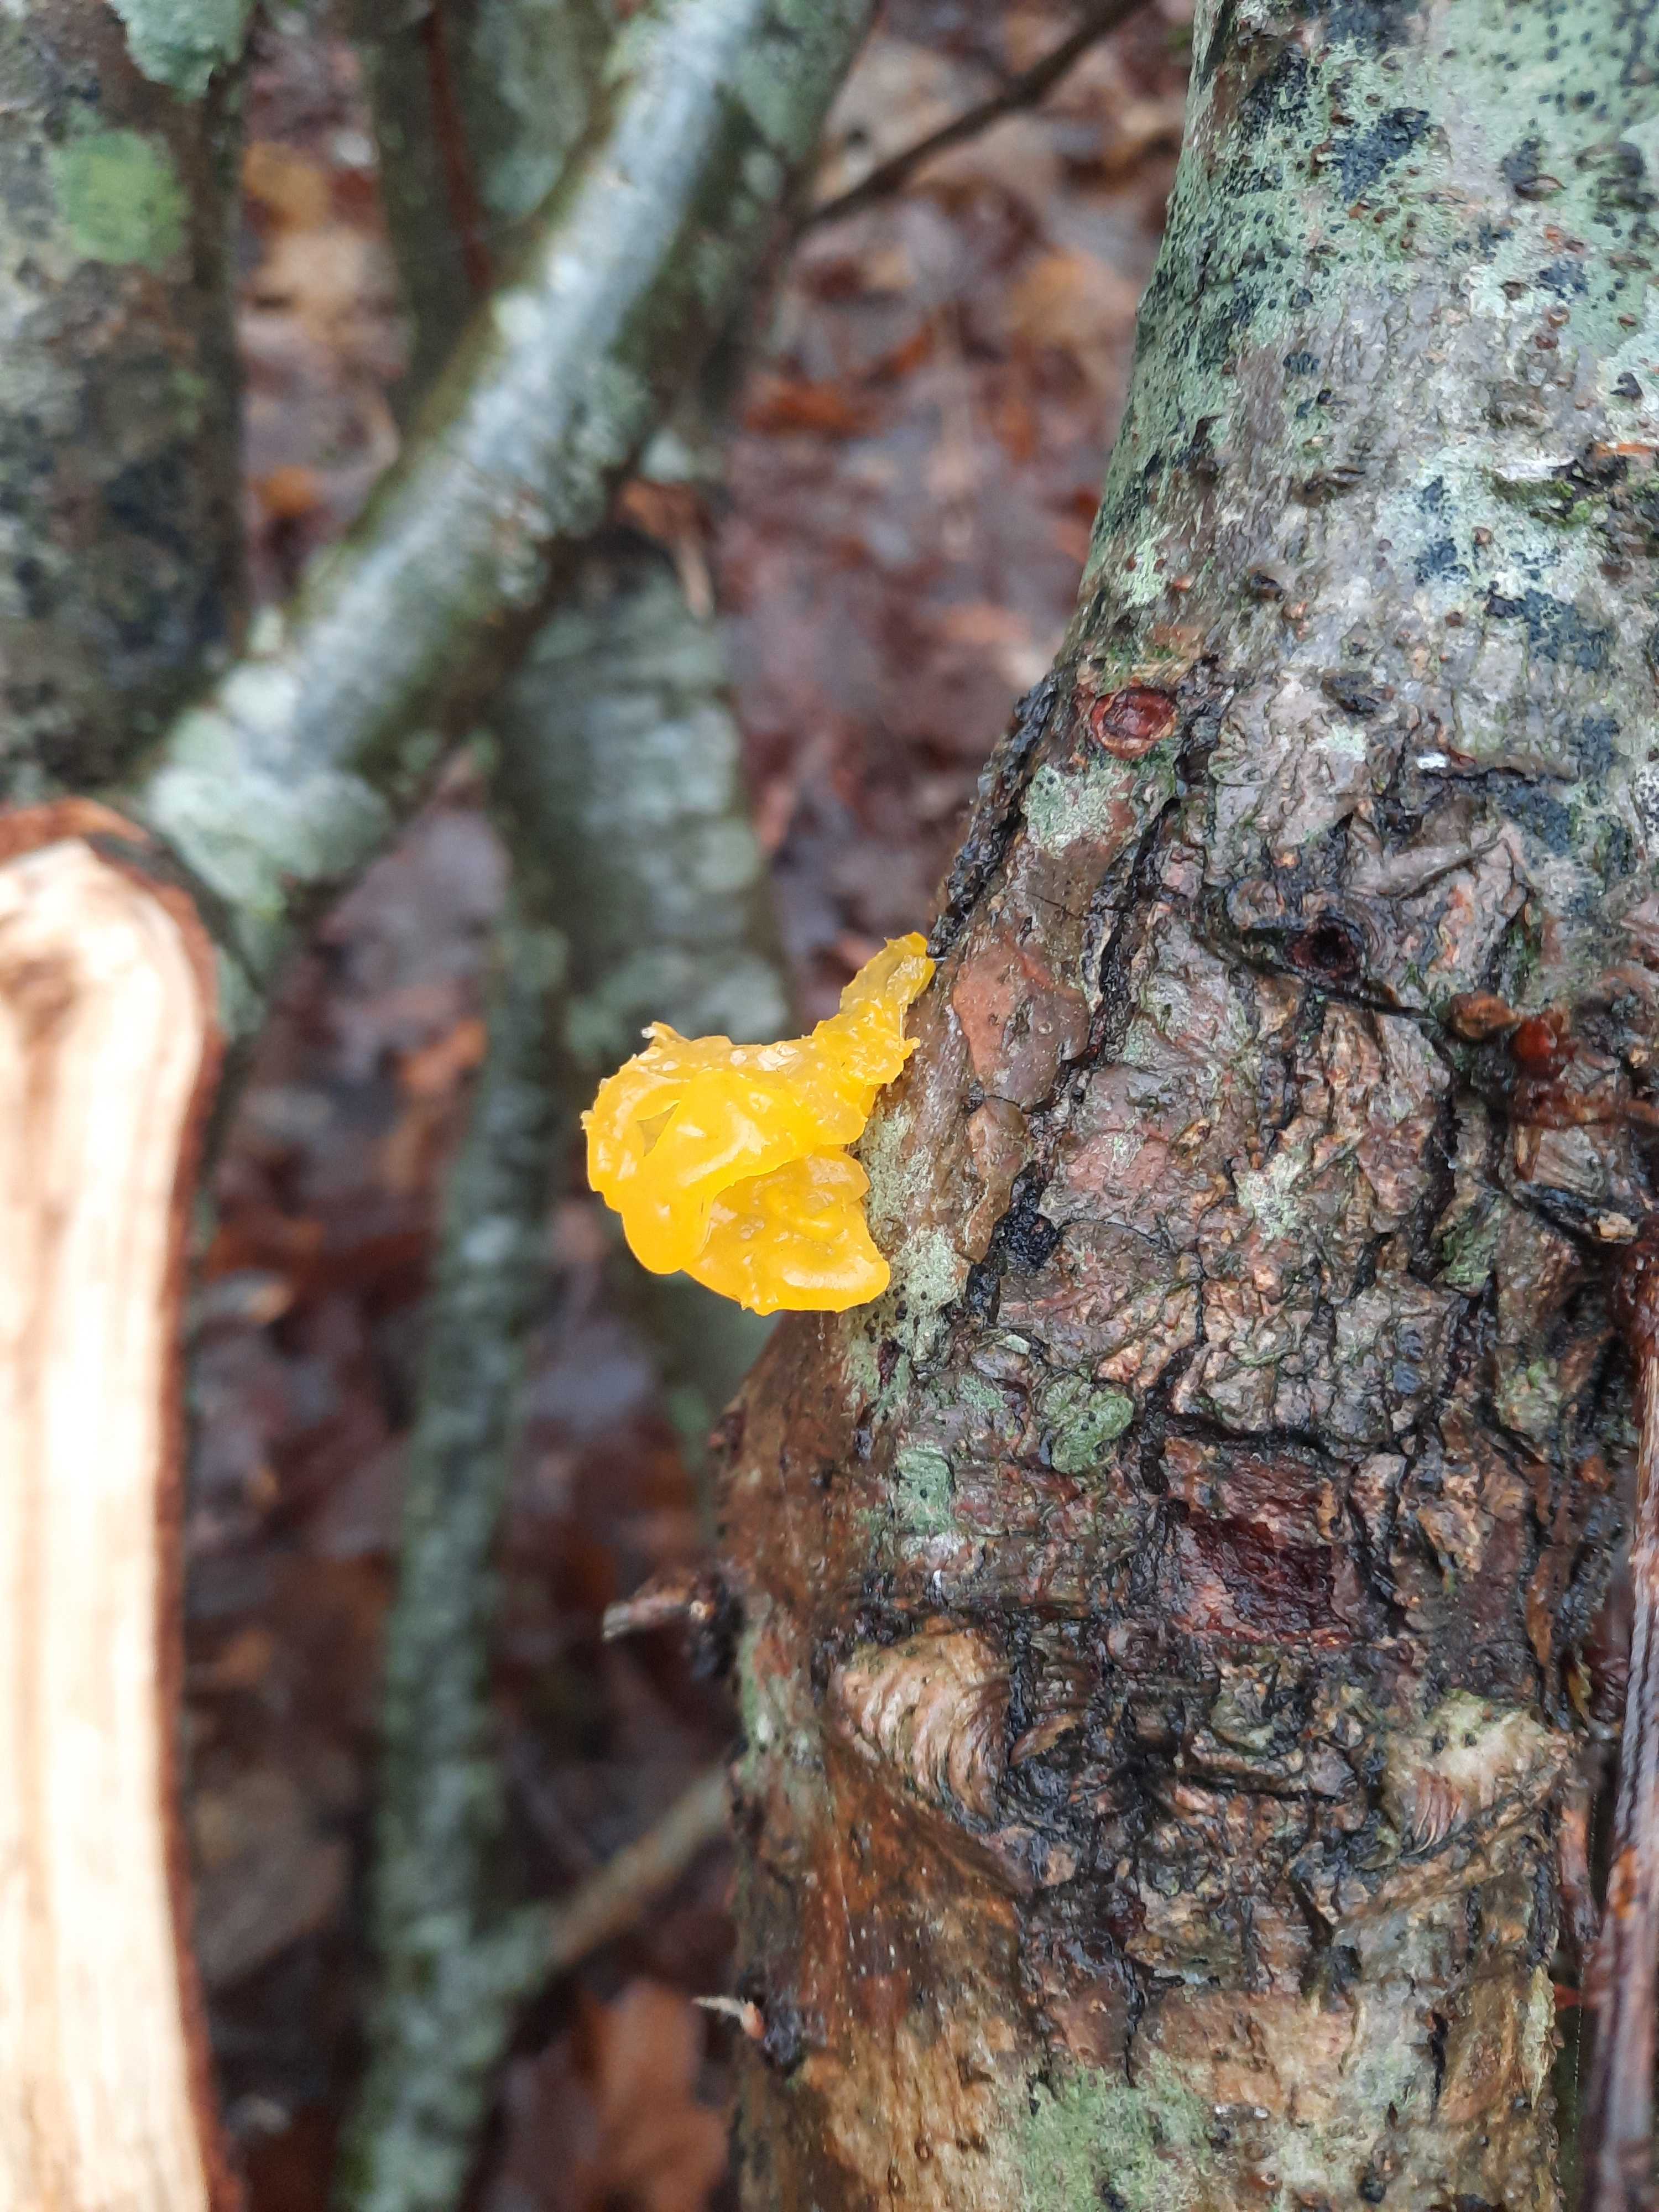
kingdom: Fungi
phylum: Basidiomycota
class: Tremellomycetes
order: Tremellales
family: Tremellaceae
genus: Tremella
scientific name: Tremella mesenterica
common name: gul bævresvamp
